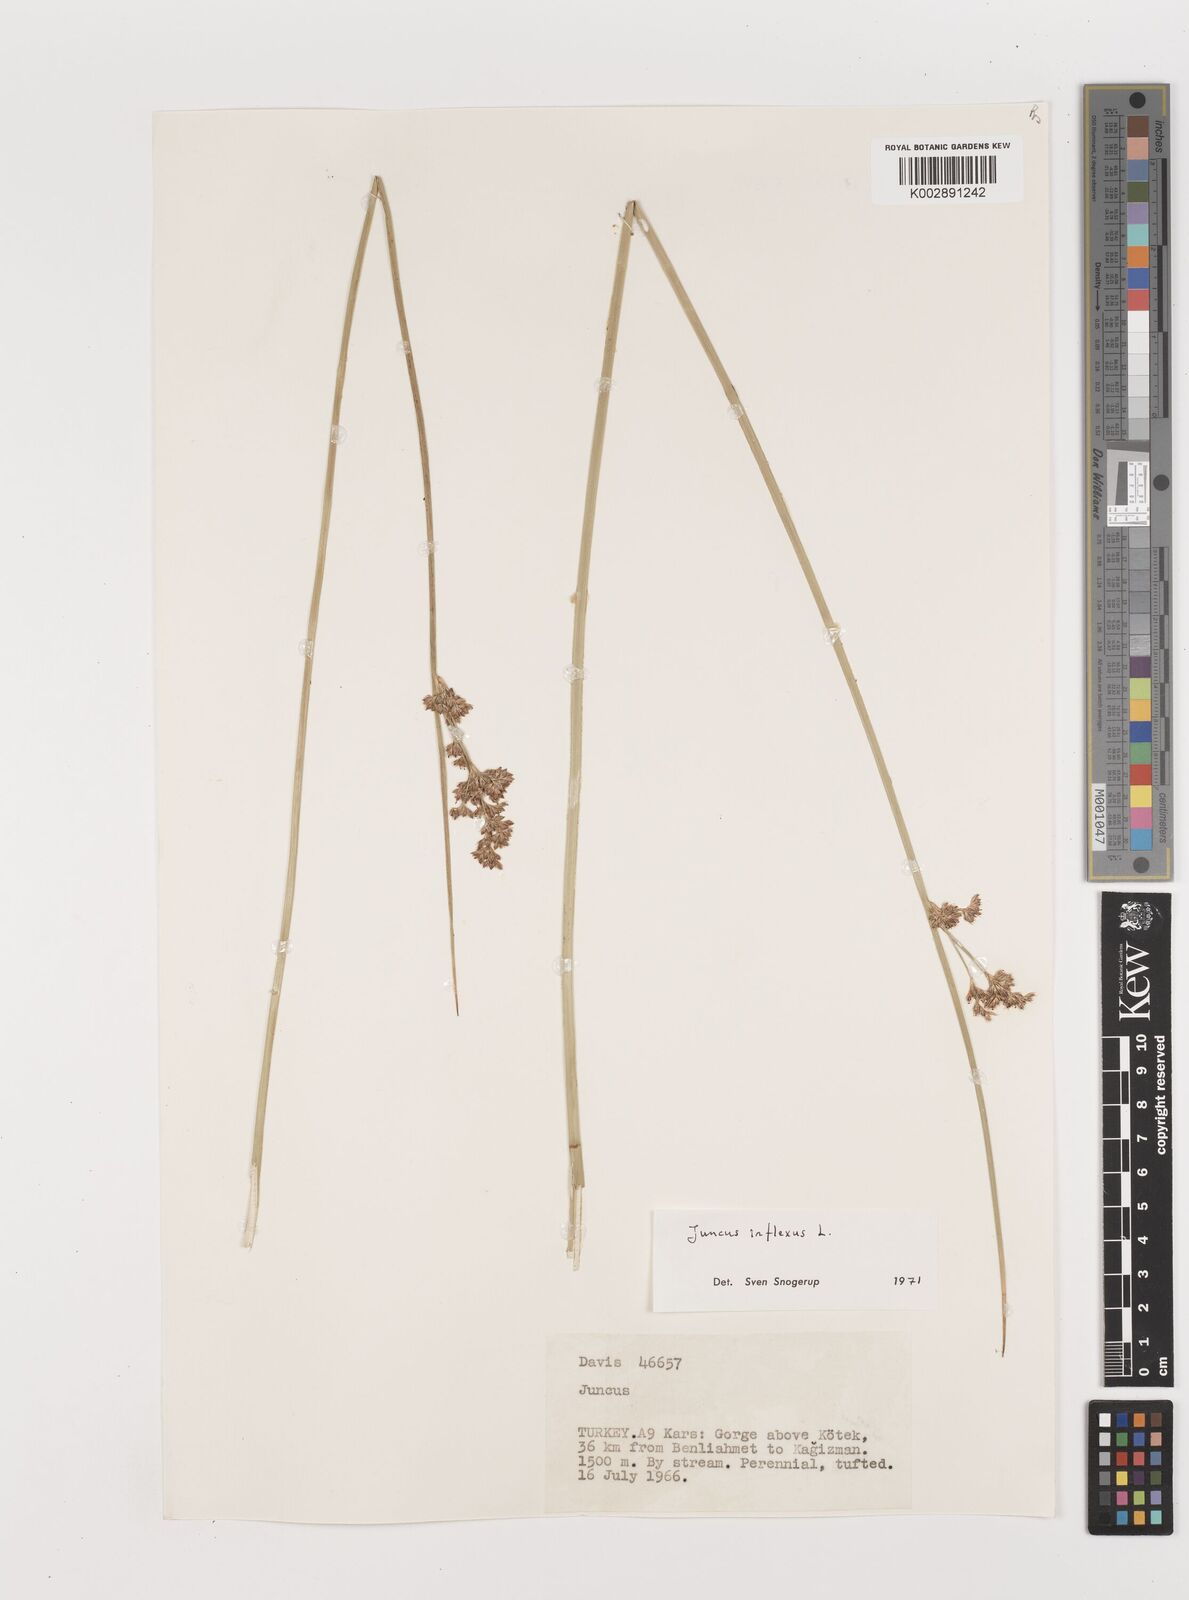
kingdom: Plantae
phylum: Tracheophyta
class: Liliopsida
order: Poales
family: Juncaceae
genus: Juncus
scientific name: Juncus inflexus
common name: Hard rush
